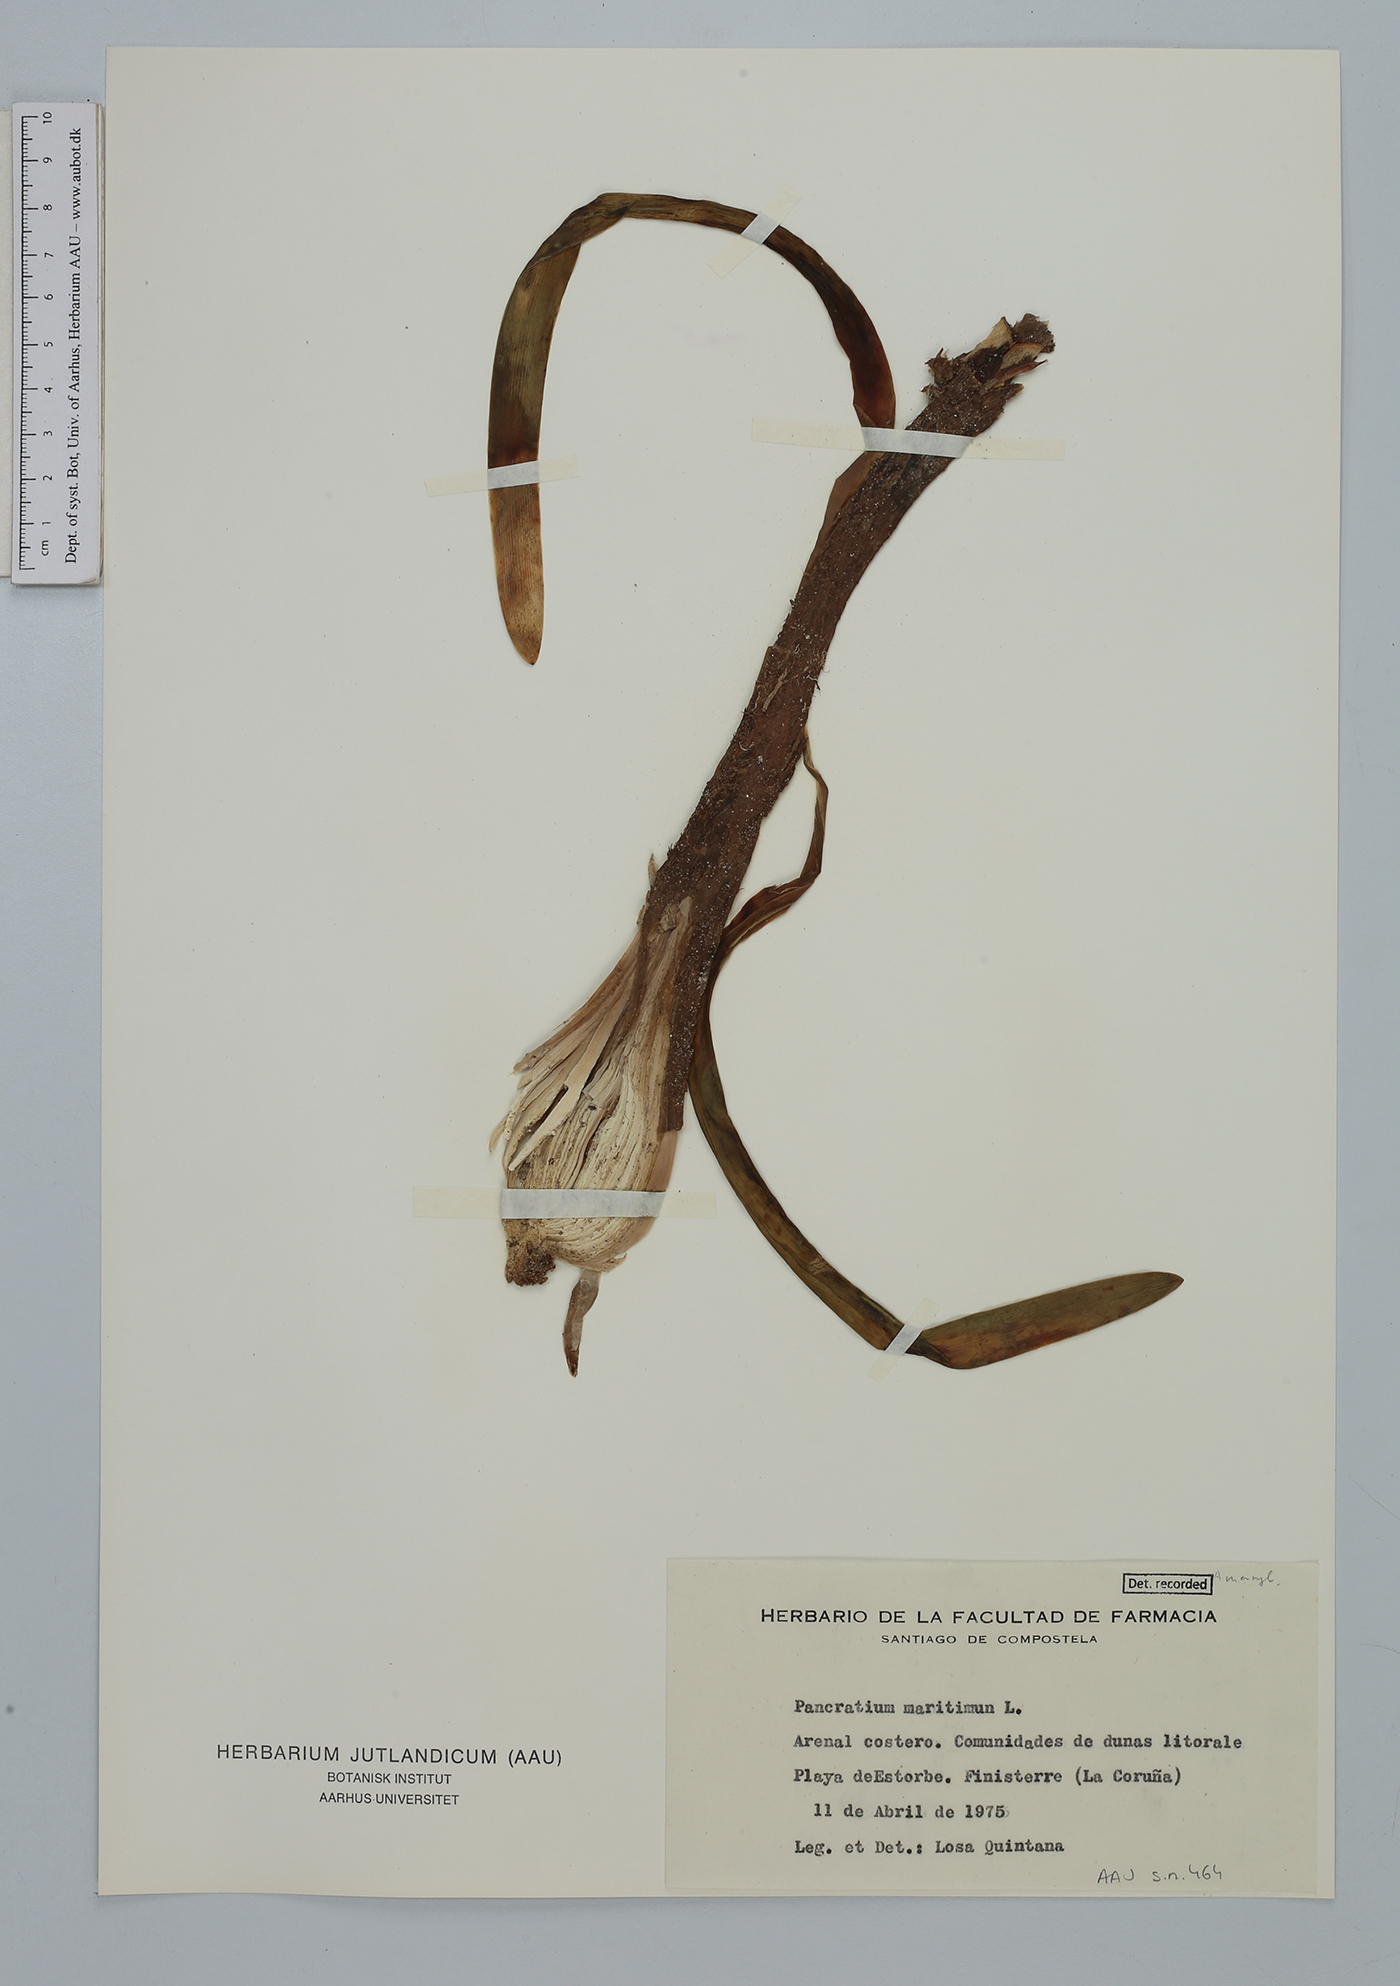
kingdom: Plantae
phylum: Tracheophyta
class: Liliopsida
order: Asparagales
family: Amaryllidaceae
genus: Pancratium
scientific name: Pancratium maritimum
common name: Sea-daffodil
